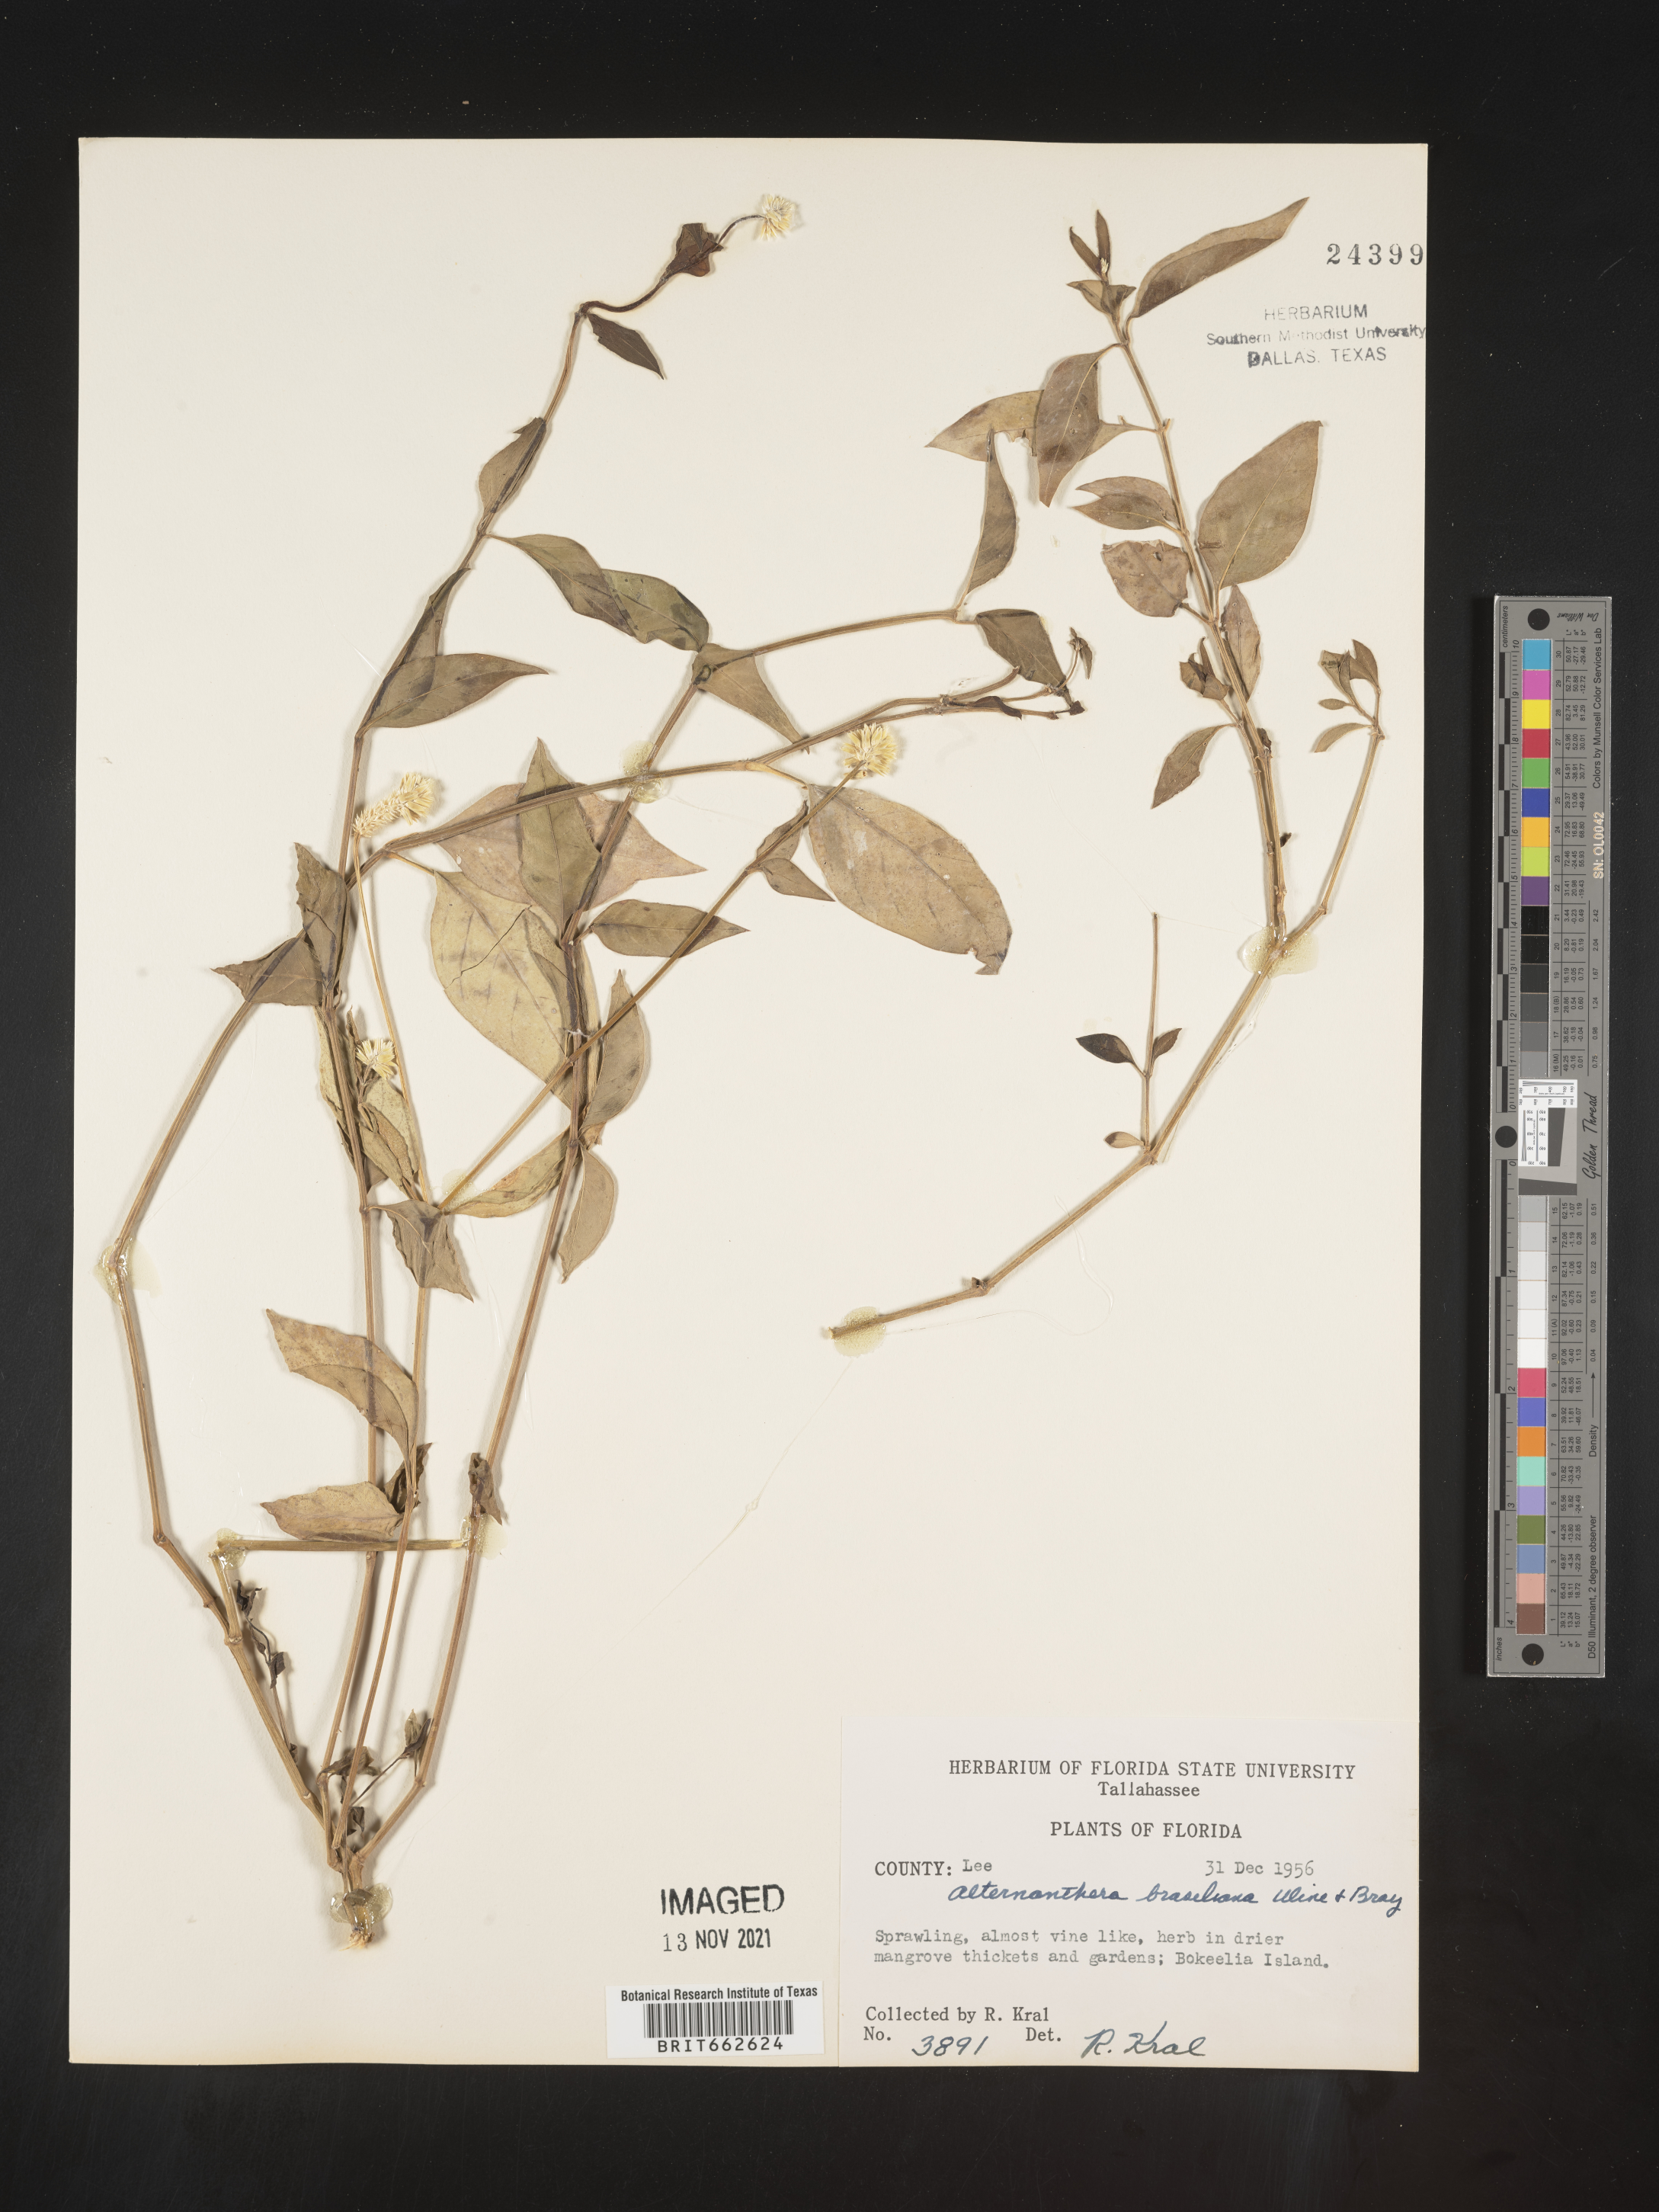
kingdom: Plantae
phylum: Tracheophyta
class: Magnoliopsida
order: Caryophyllales
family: Amaranthaceae
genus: Alternanthera
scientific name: Alternanthera ramosissima
